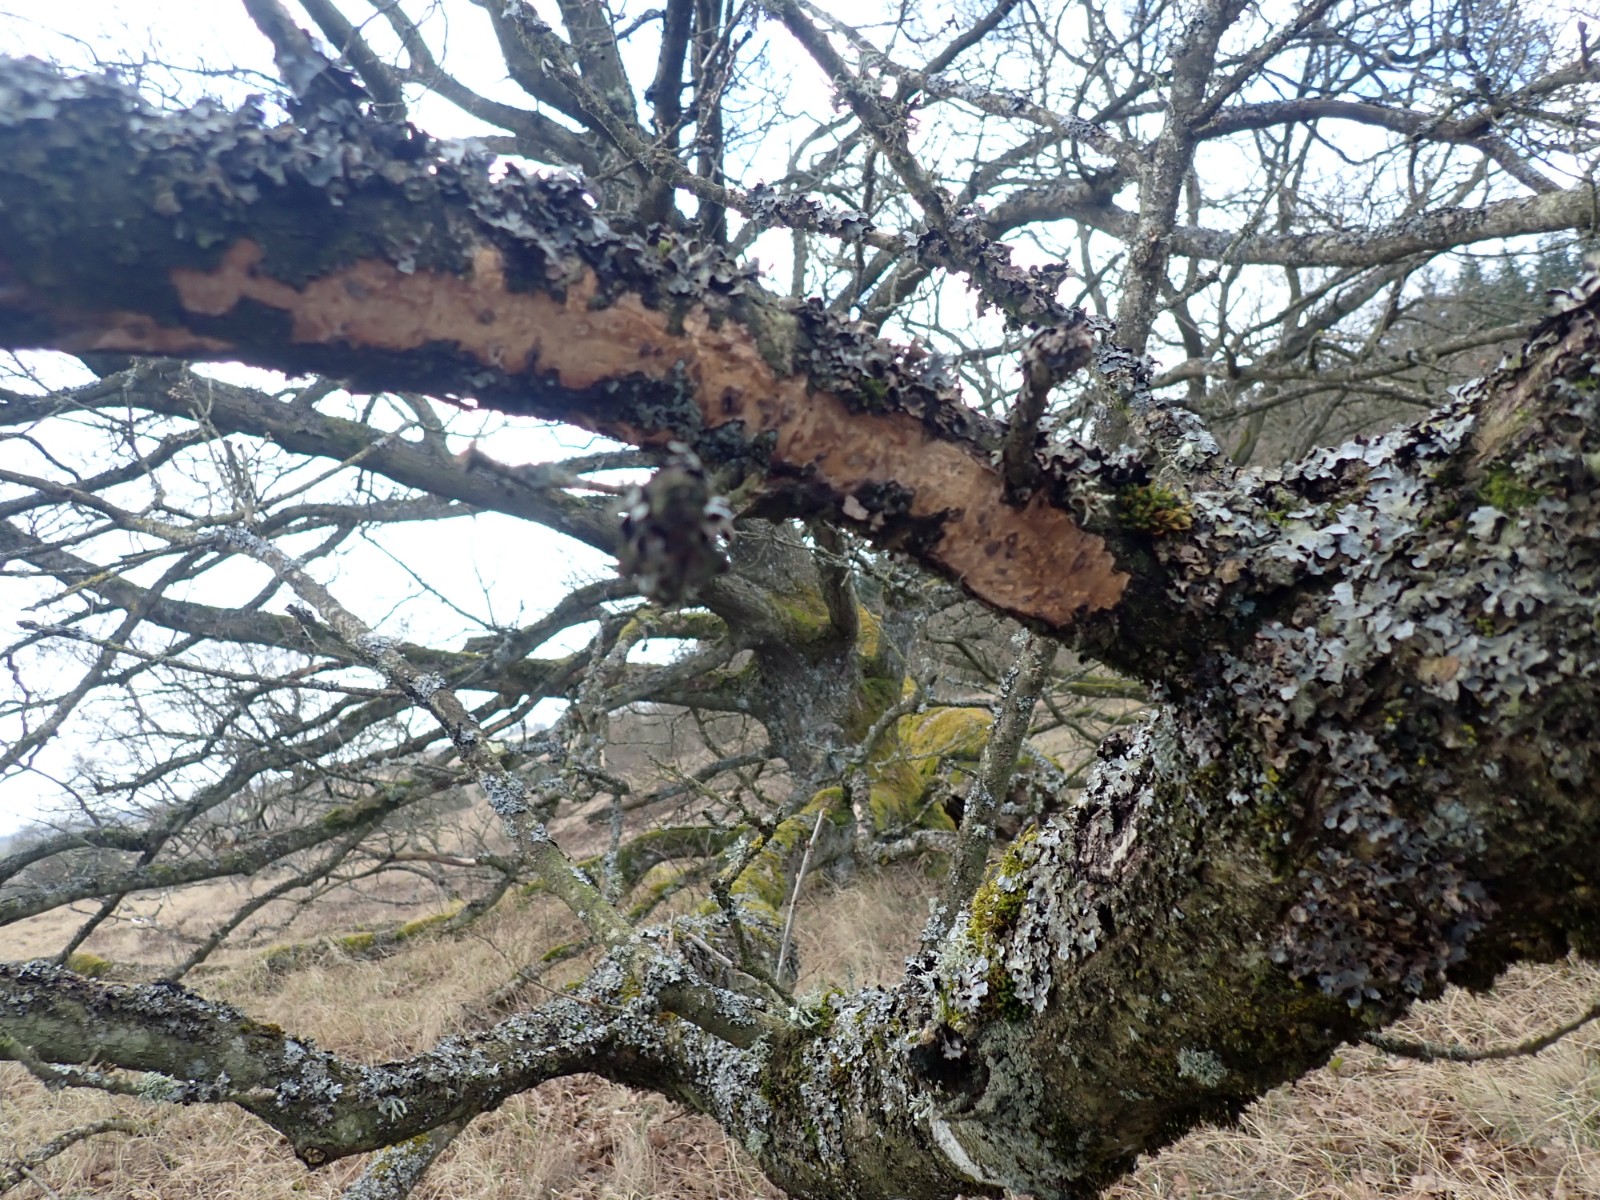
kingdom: Fungi
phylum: Basidiomycota
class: Agaricomycetes
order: Corticiales
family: Vuilleminiaceae
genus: Vuilleminia
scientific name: Vuilleminia comedens
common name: almindelig barksprænger
